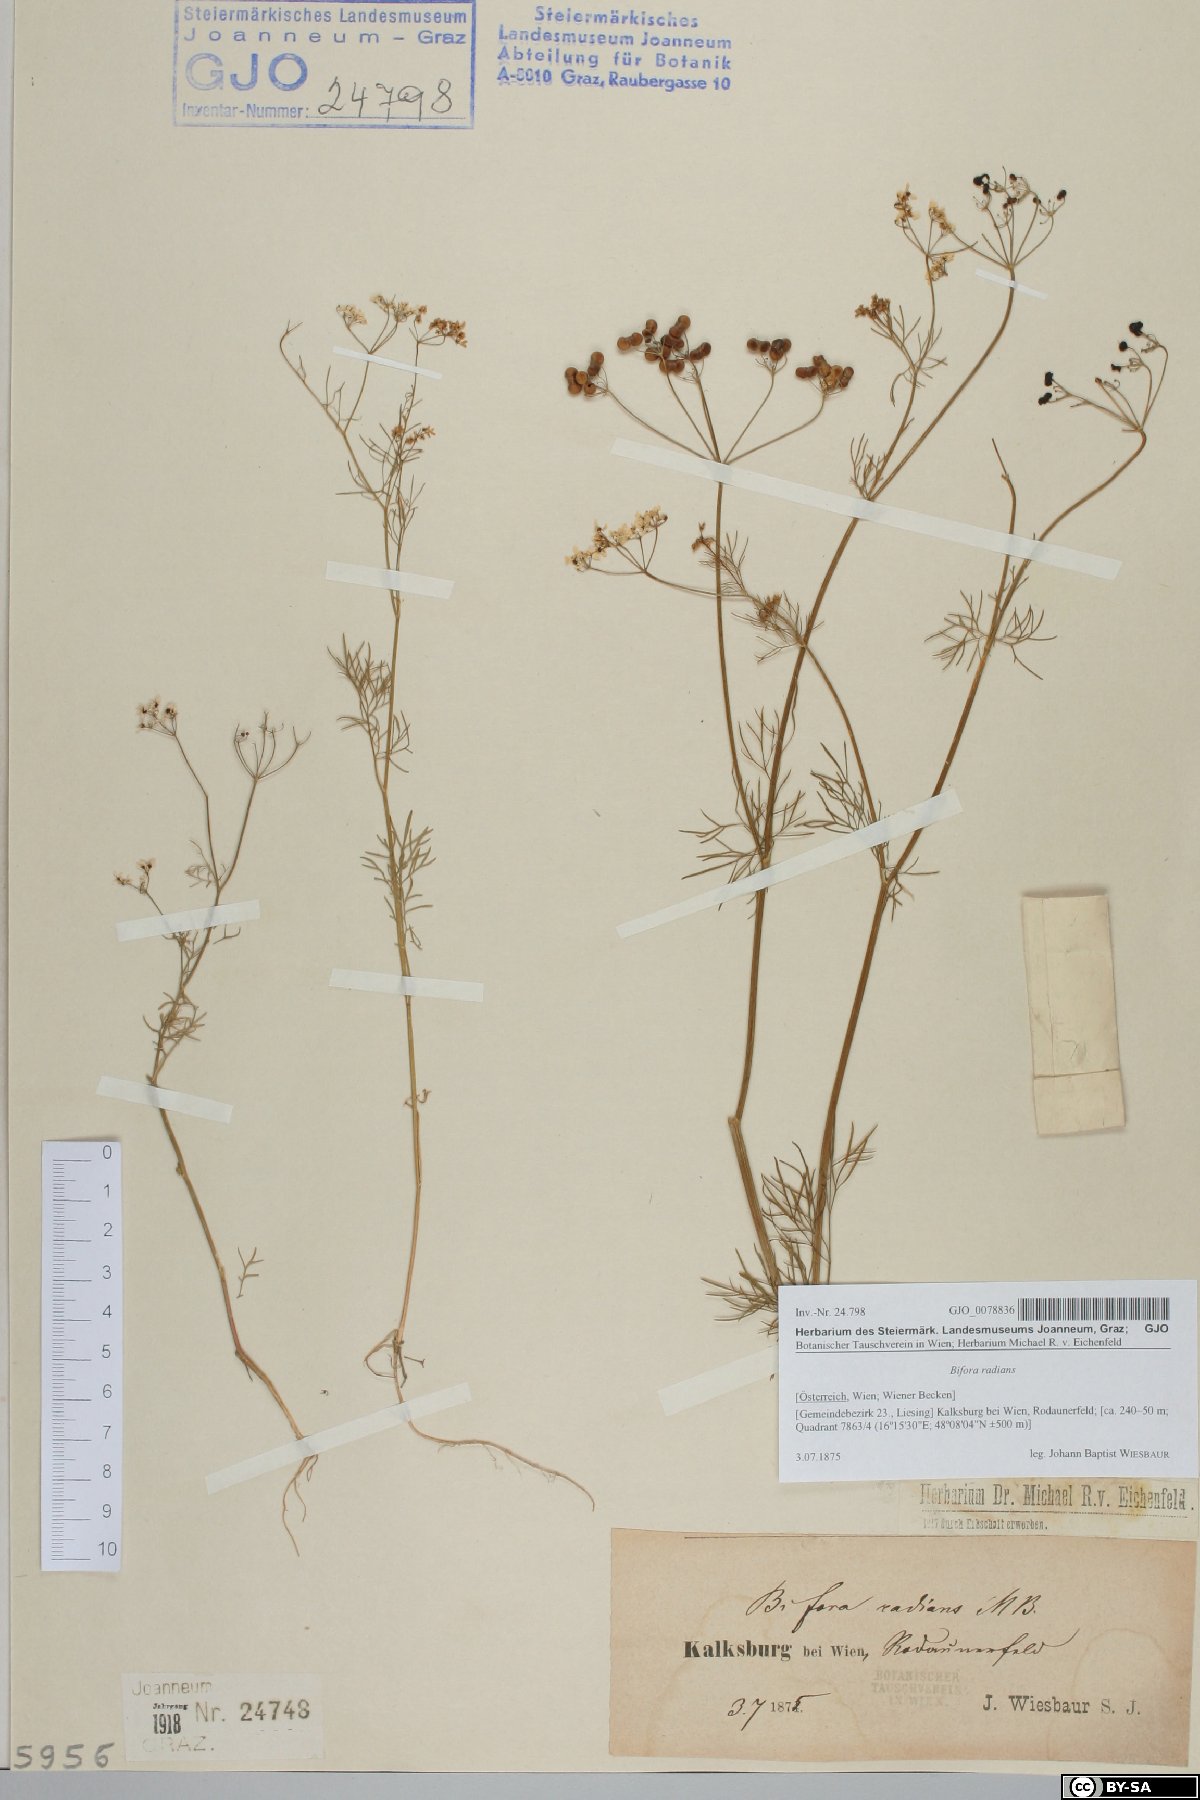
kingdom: Plantae
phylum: Tracheophyta
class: Magnoliopsida
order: Apiales
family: Apiaceae
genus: Bifora
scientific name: Bifora radians
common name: Wild bishop
